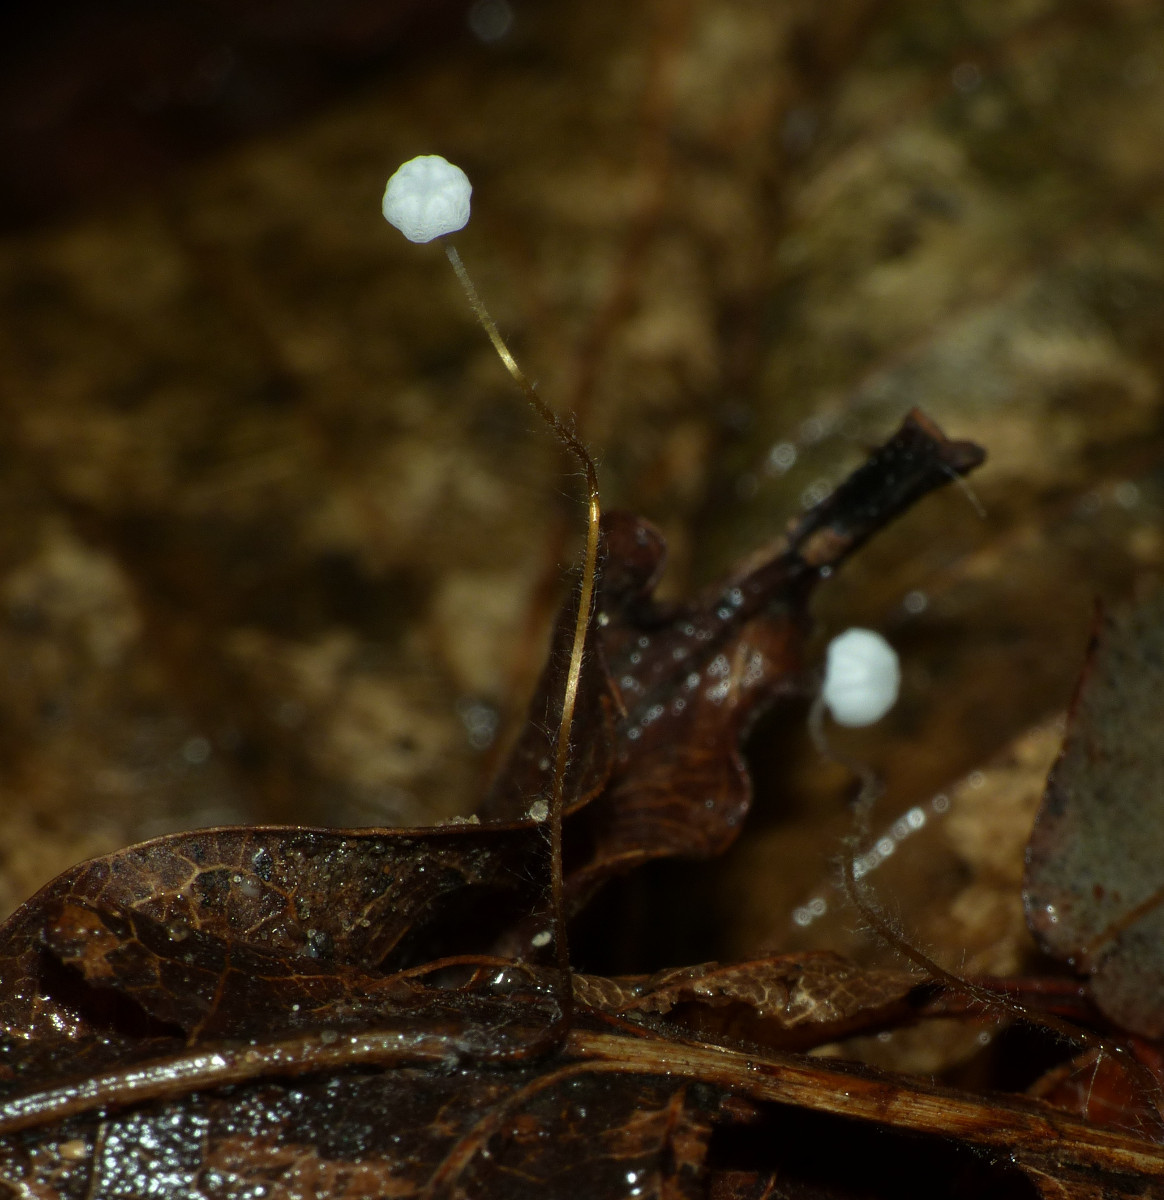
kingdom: Fungi
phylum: Basidiomycota
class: Agaricomycetes
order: Agaricales
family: Physalacriaceae
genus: Rhizomarasmius
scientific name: Rhizomarasmius setosus
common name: bøgeblads-bruskhat
